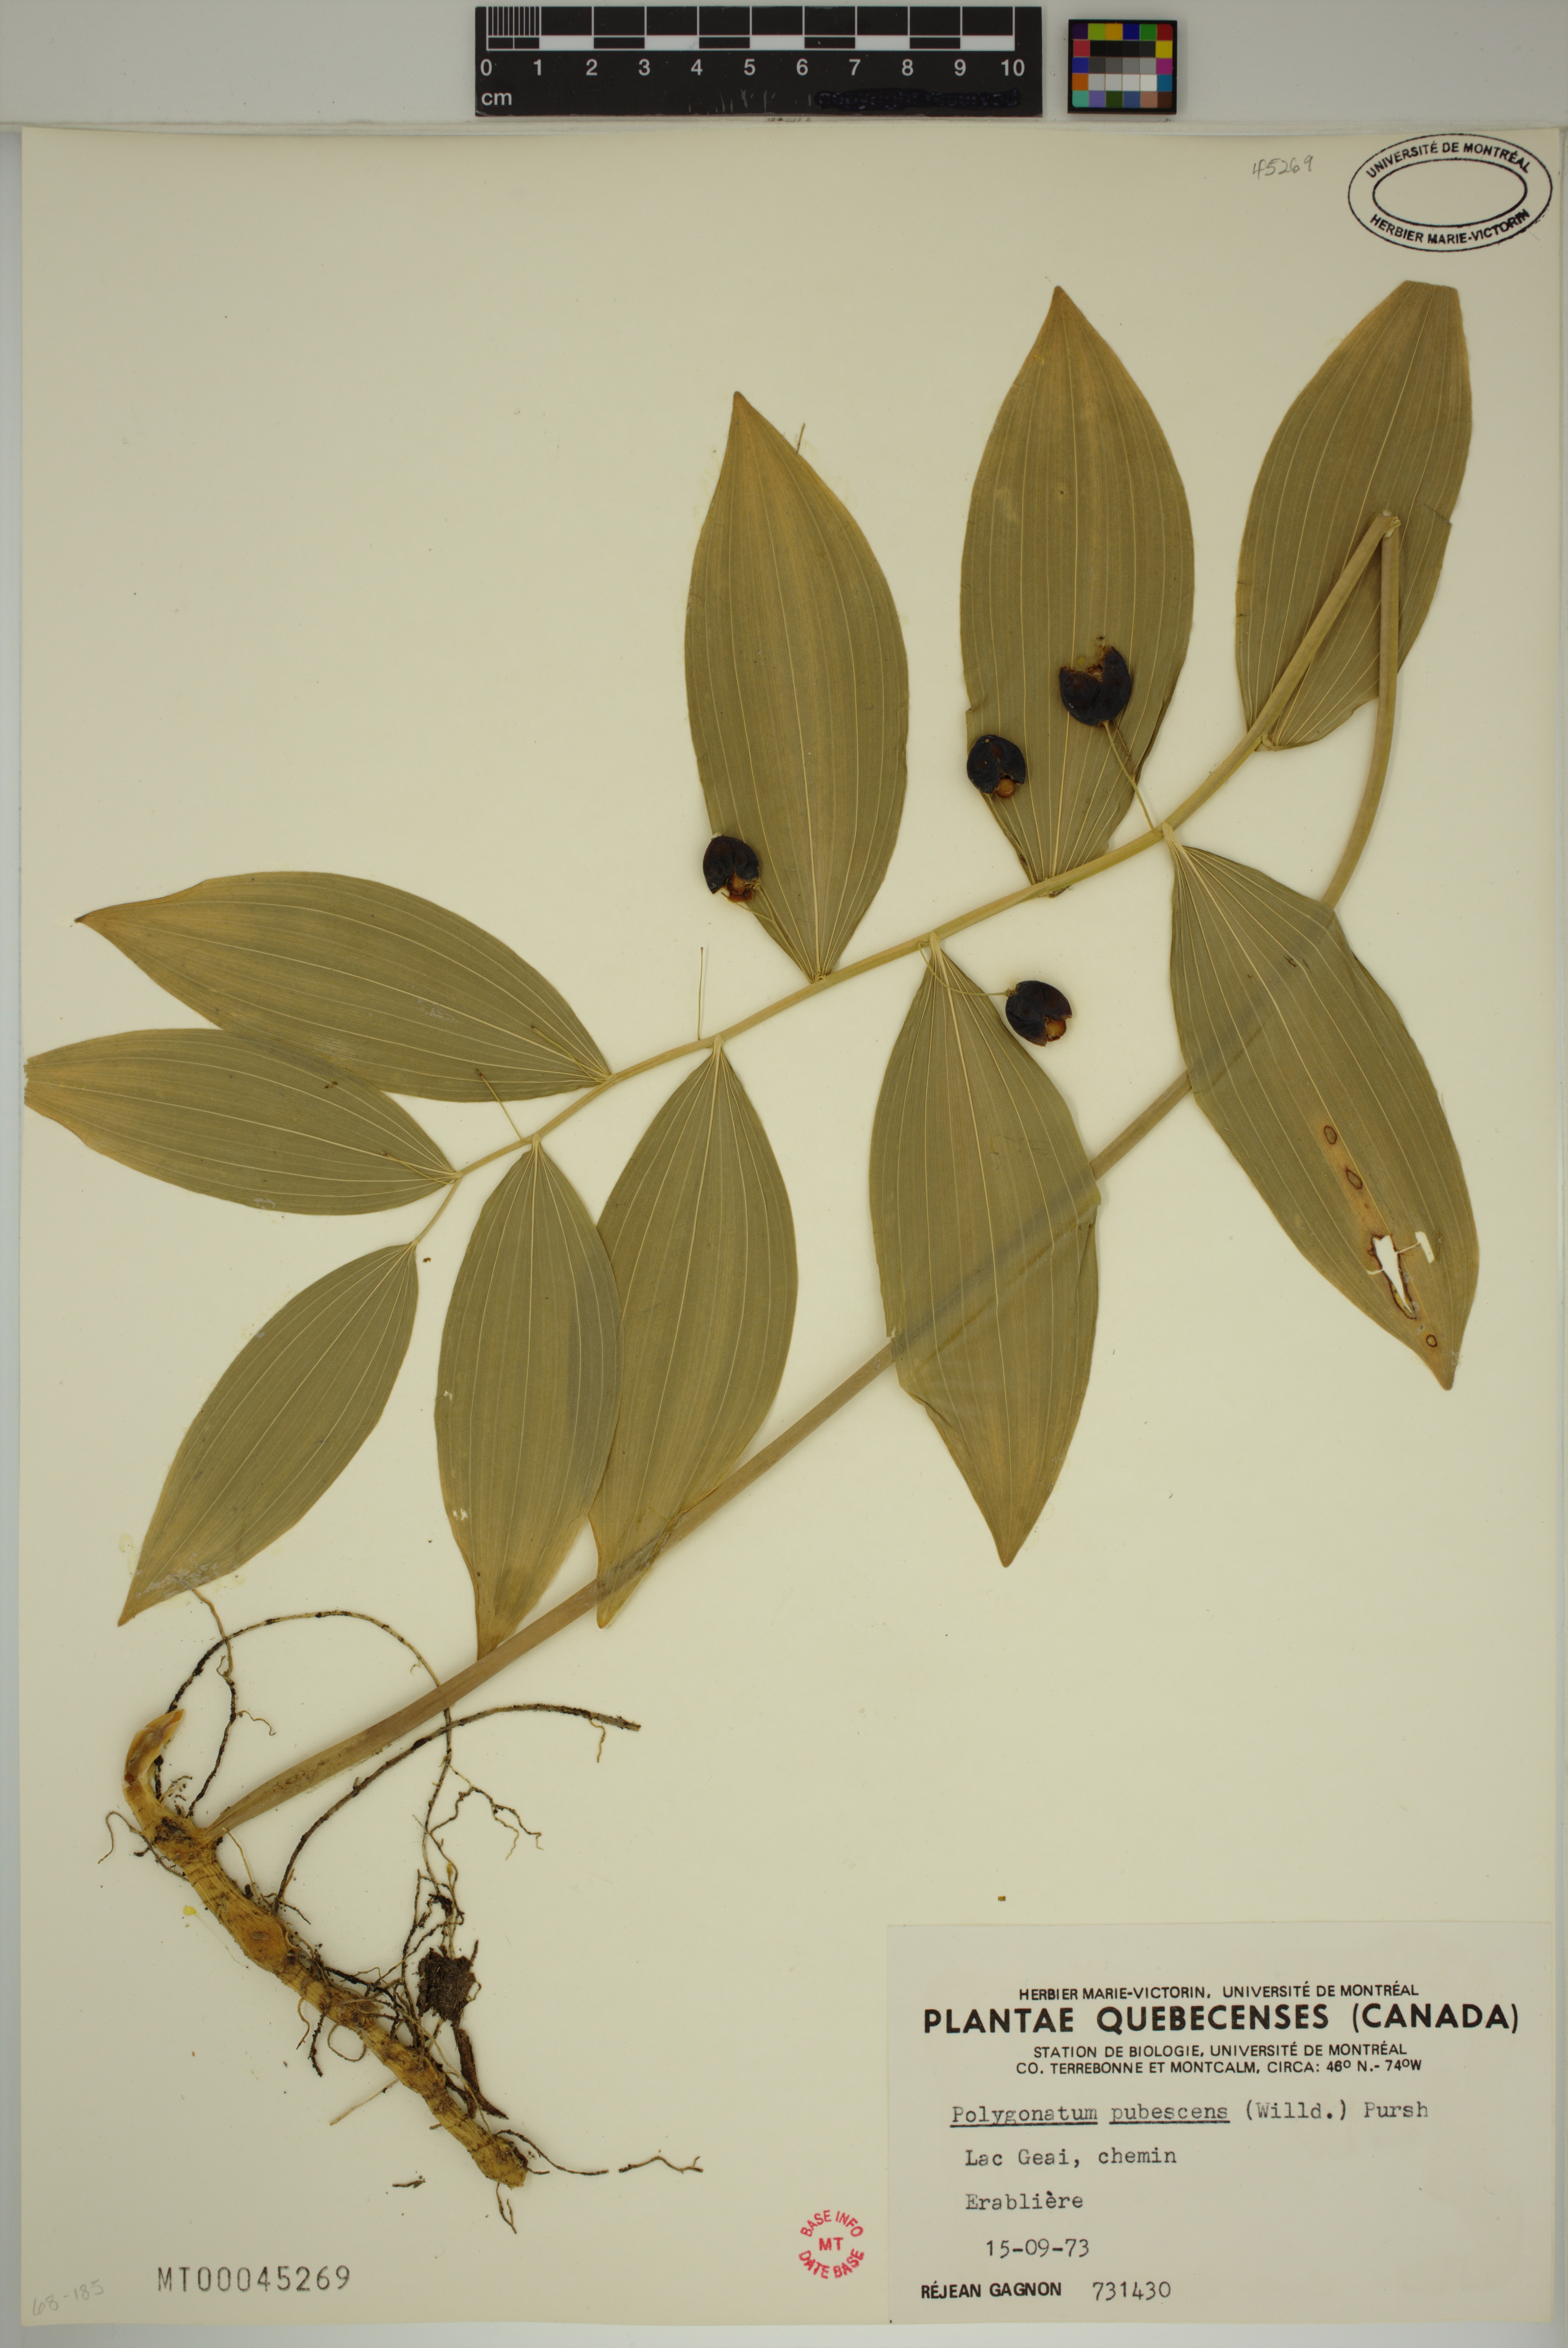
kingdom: Plantae
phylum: Tracheophyta
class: Liliopsida
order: Asparagales
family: Asparagaceae
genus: Polygonatum
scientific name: Polygonatum pubescens
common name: Downy solomon's seal
